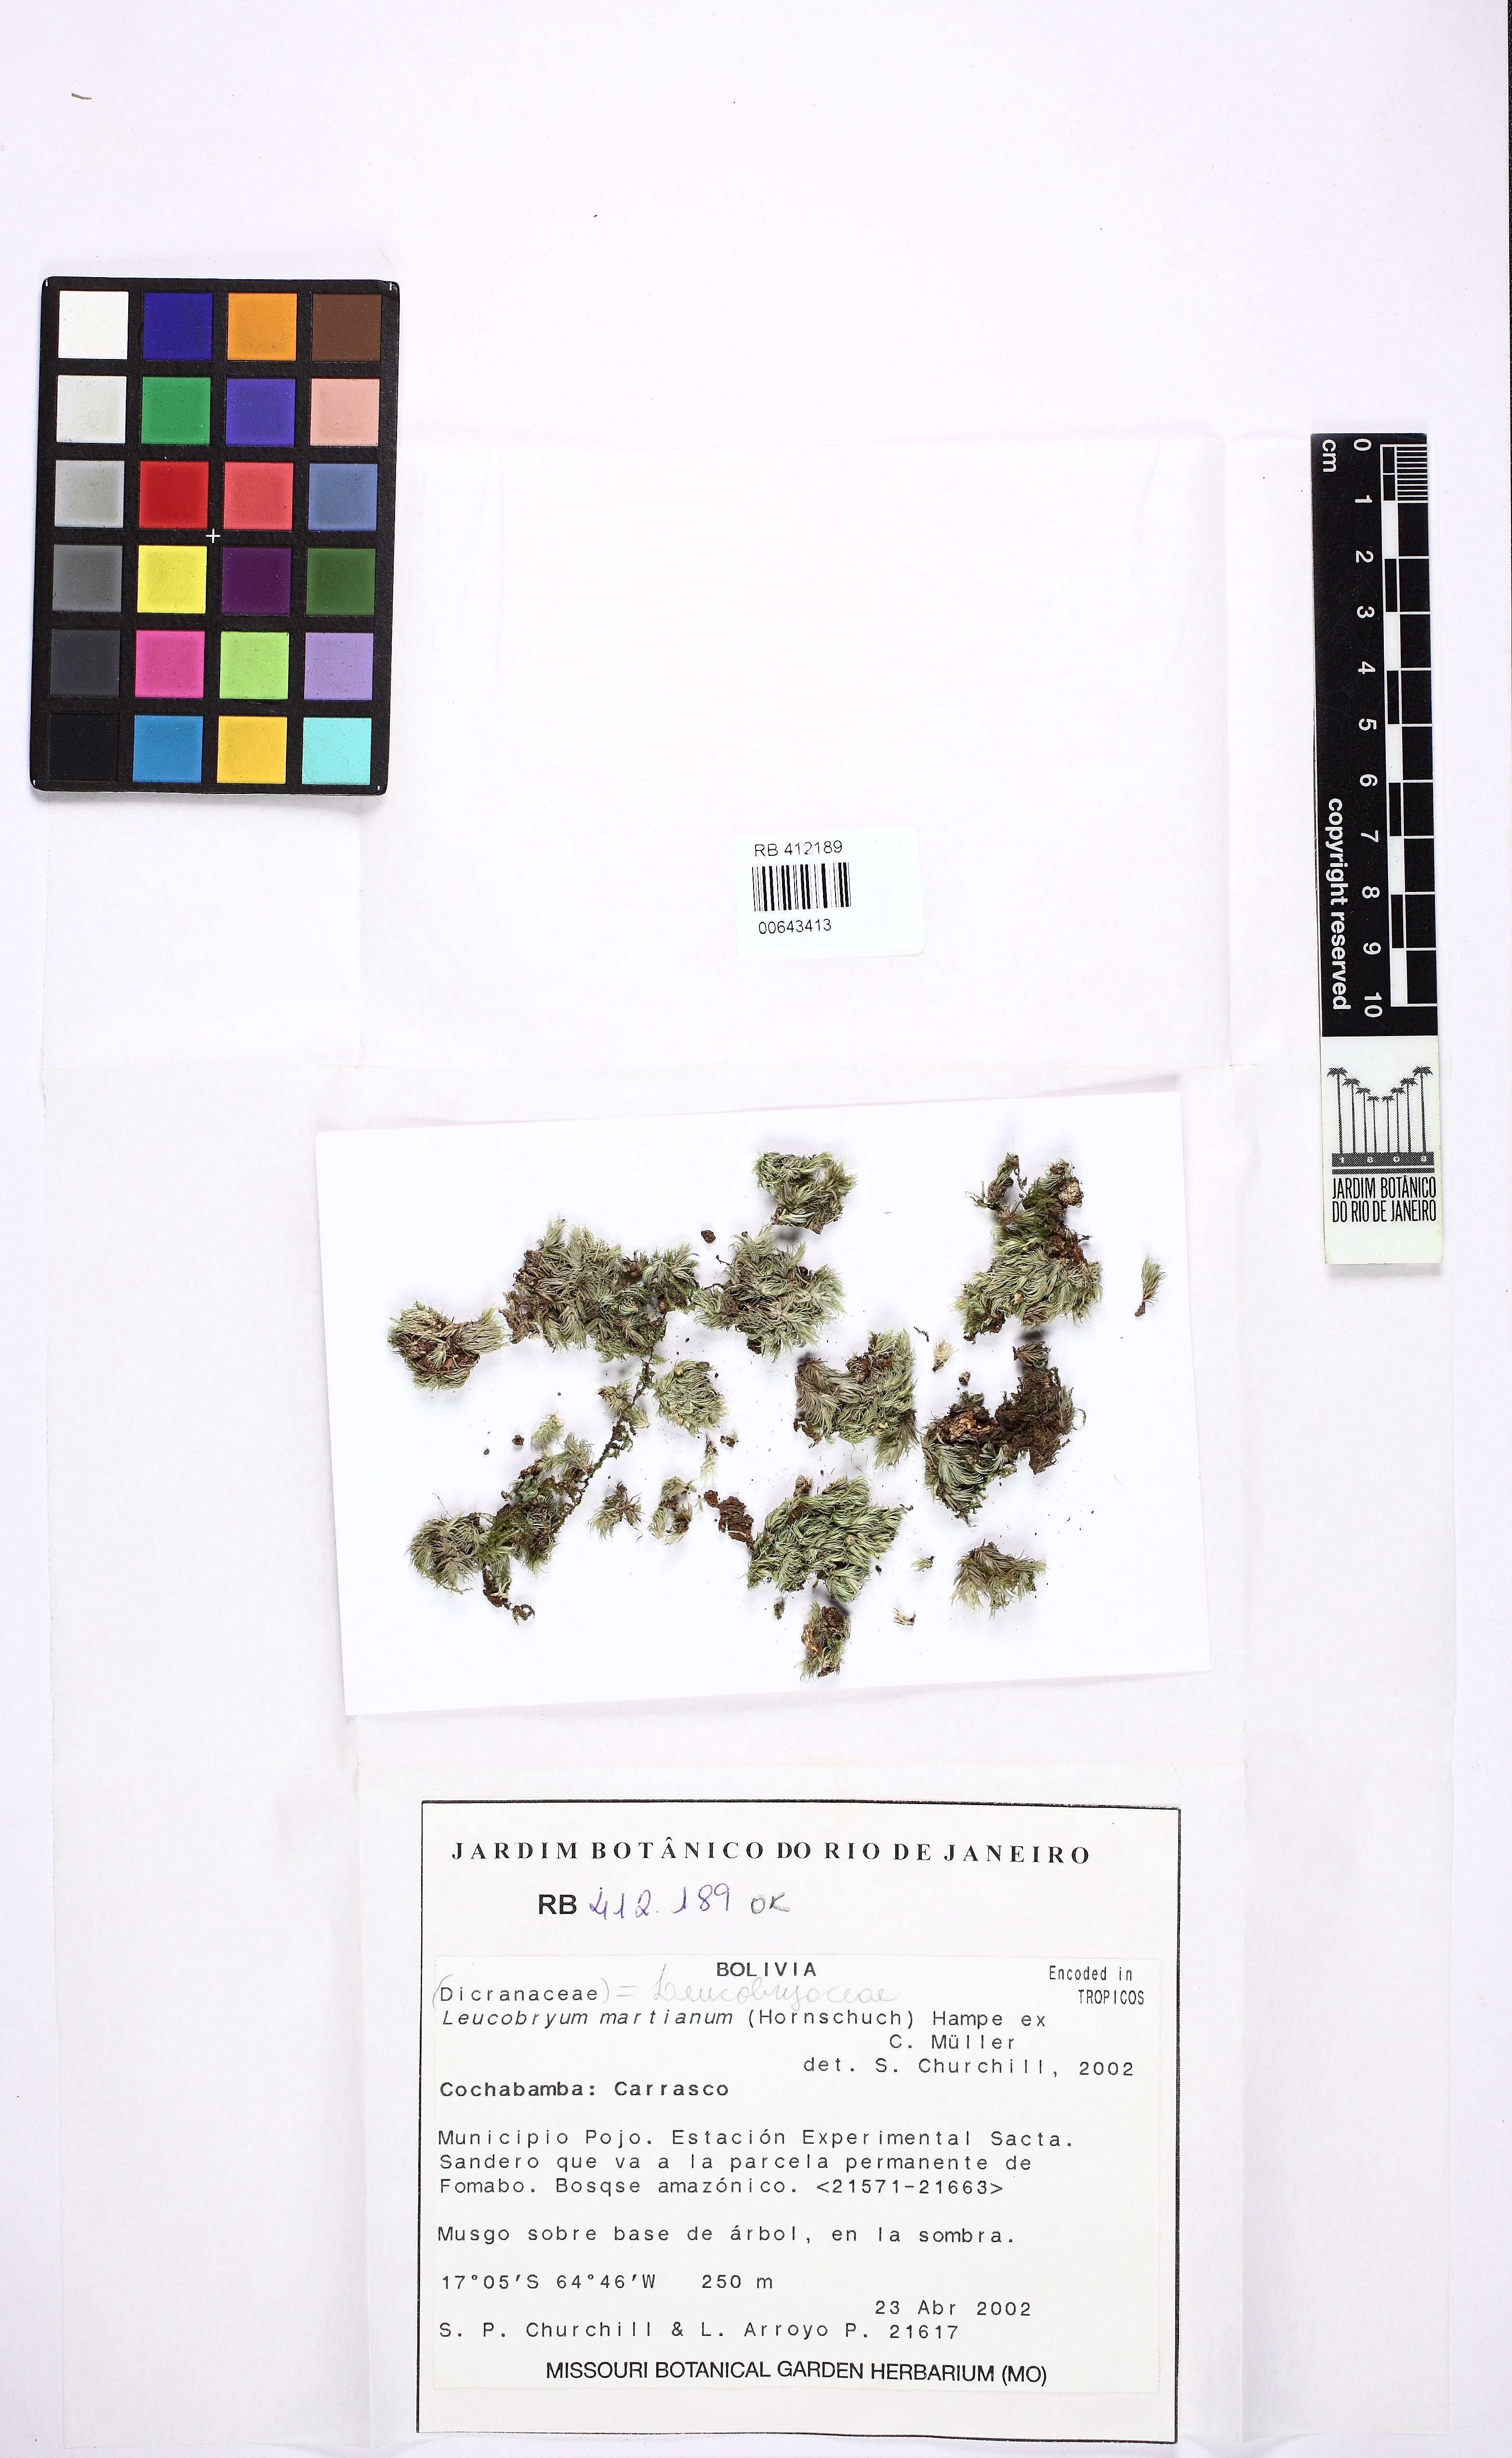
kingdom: Plantae
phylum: Bryophyta
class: Bryopsida
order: Dicranales
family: Leucobryaceae
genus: Leucobryum
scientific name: Leucobryum martianum
